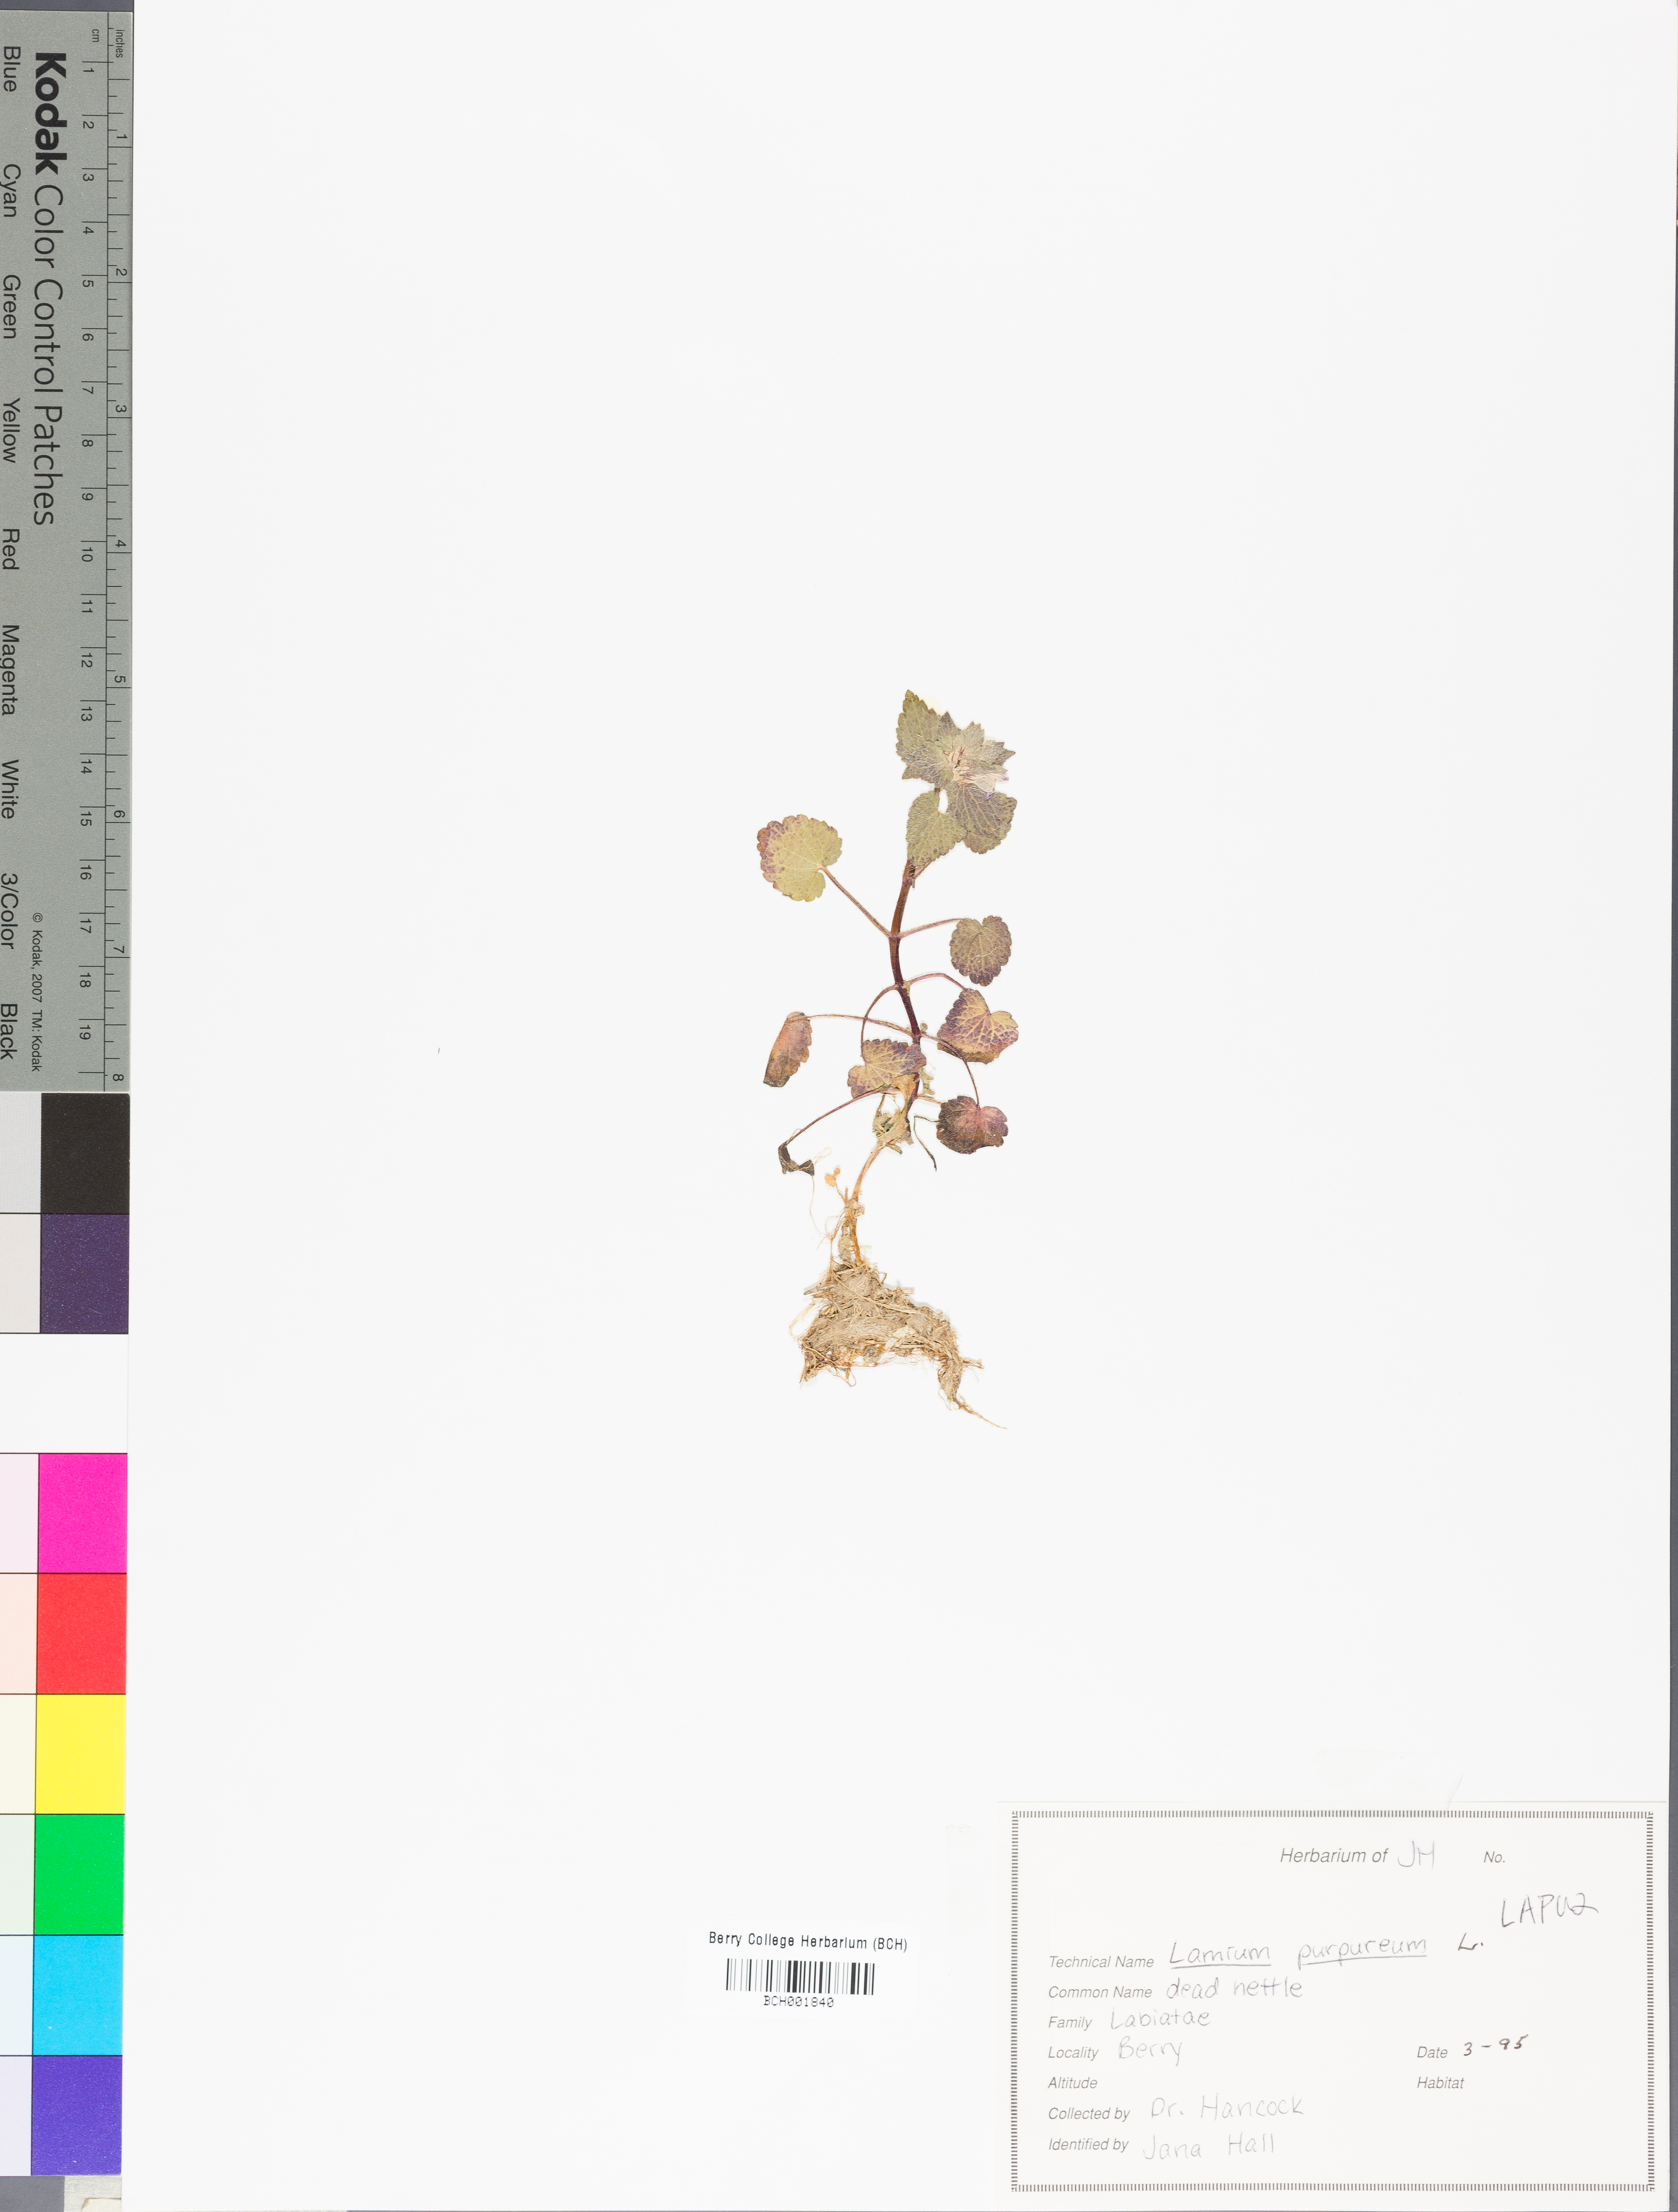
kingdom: Plantae
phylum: Tracheophyta
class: Magnoliopsida
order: Lamiales
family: Lamiaceae
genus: Lamium
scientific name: Lamium purpureum
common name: Red dead-nettle
